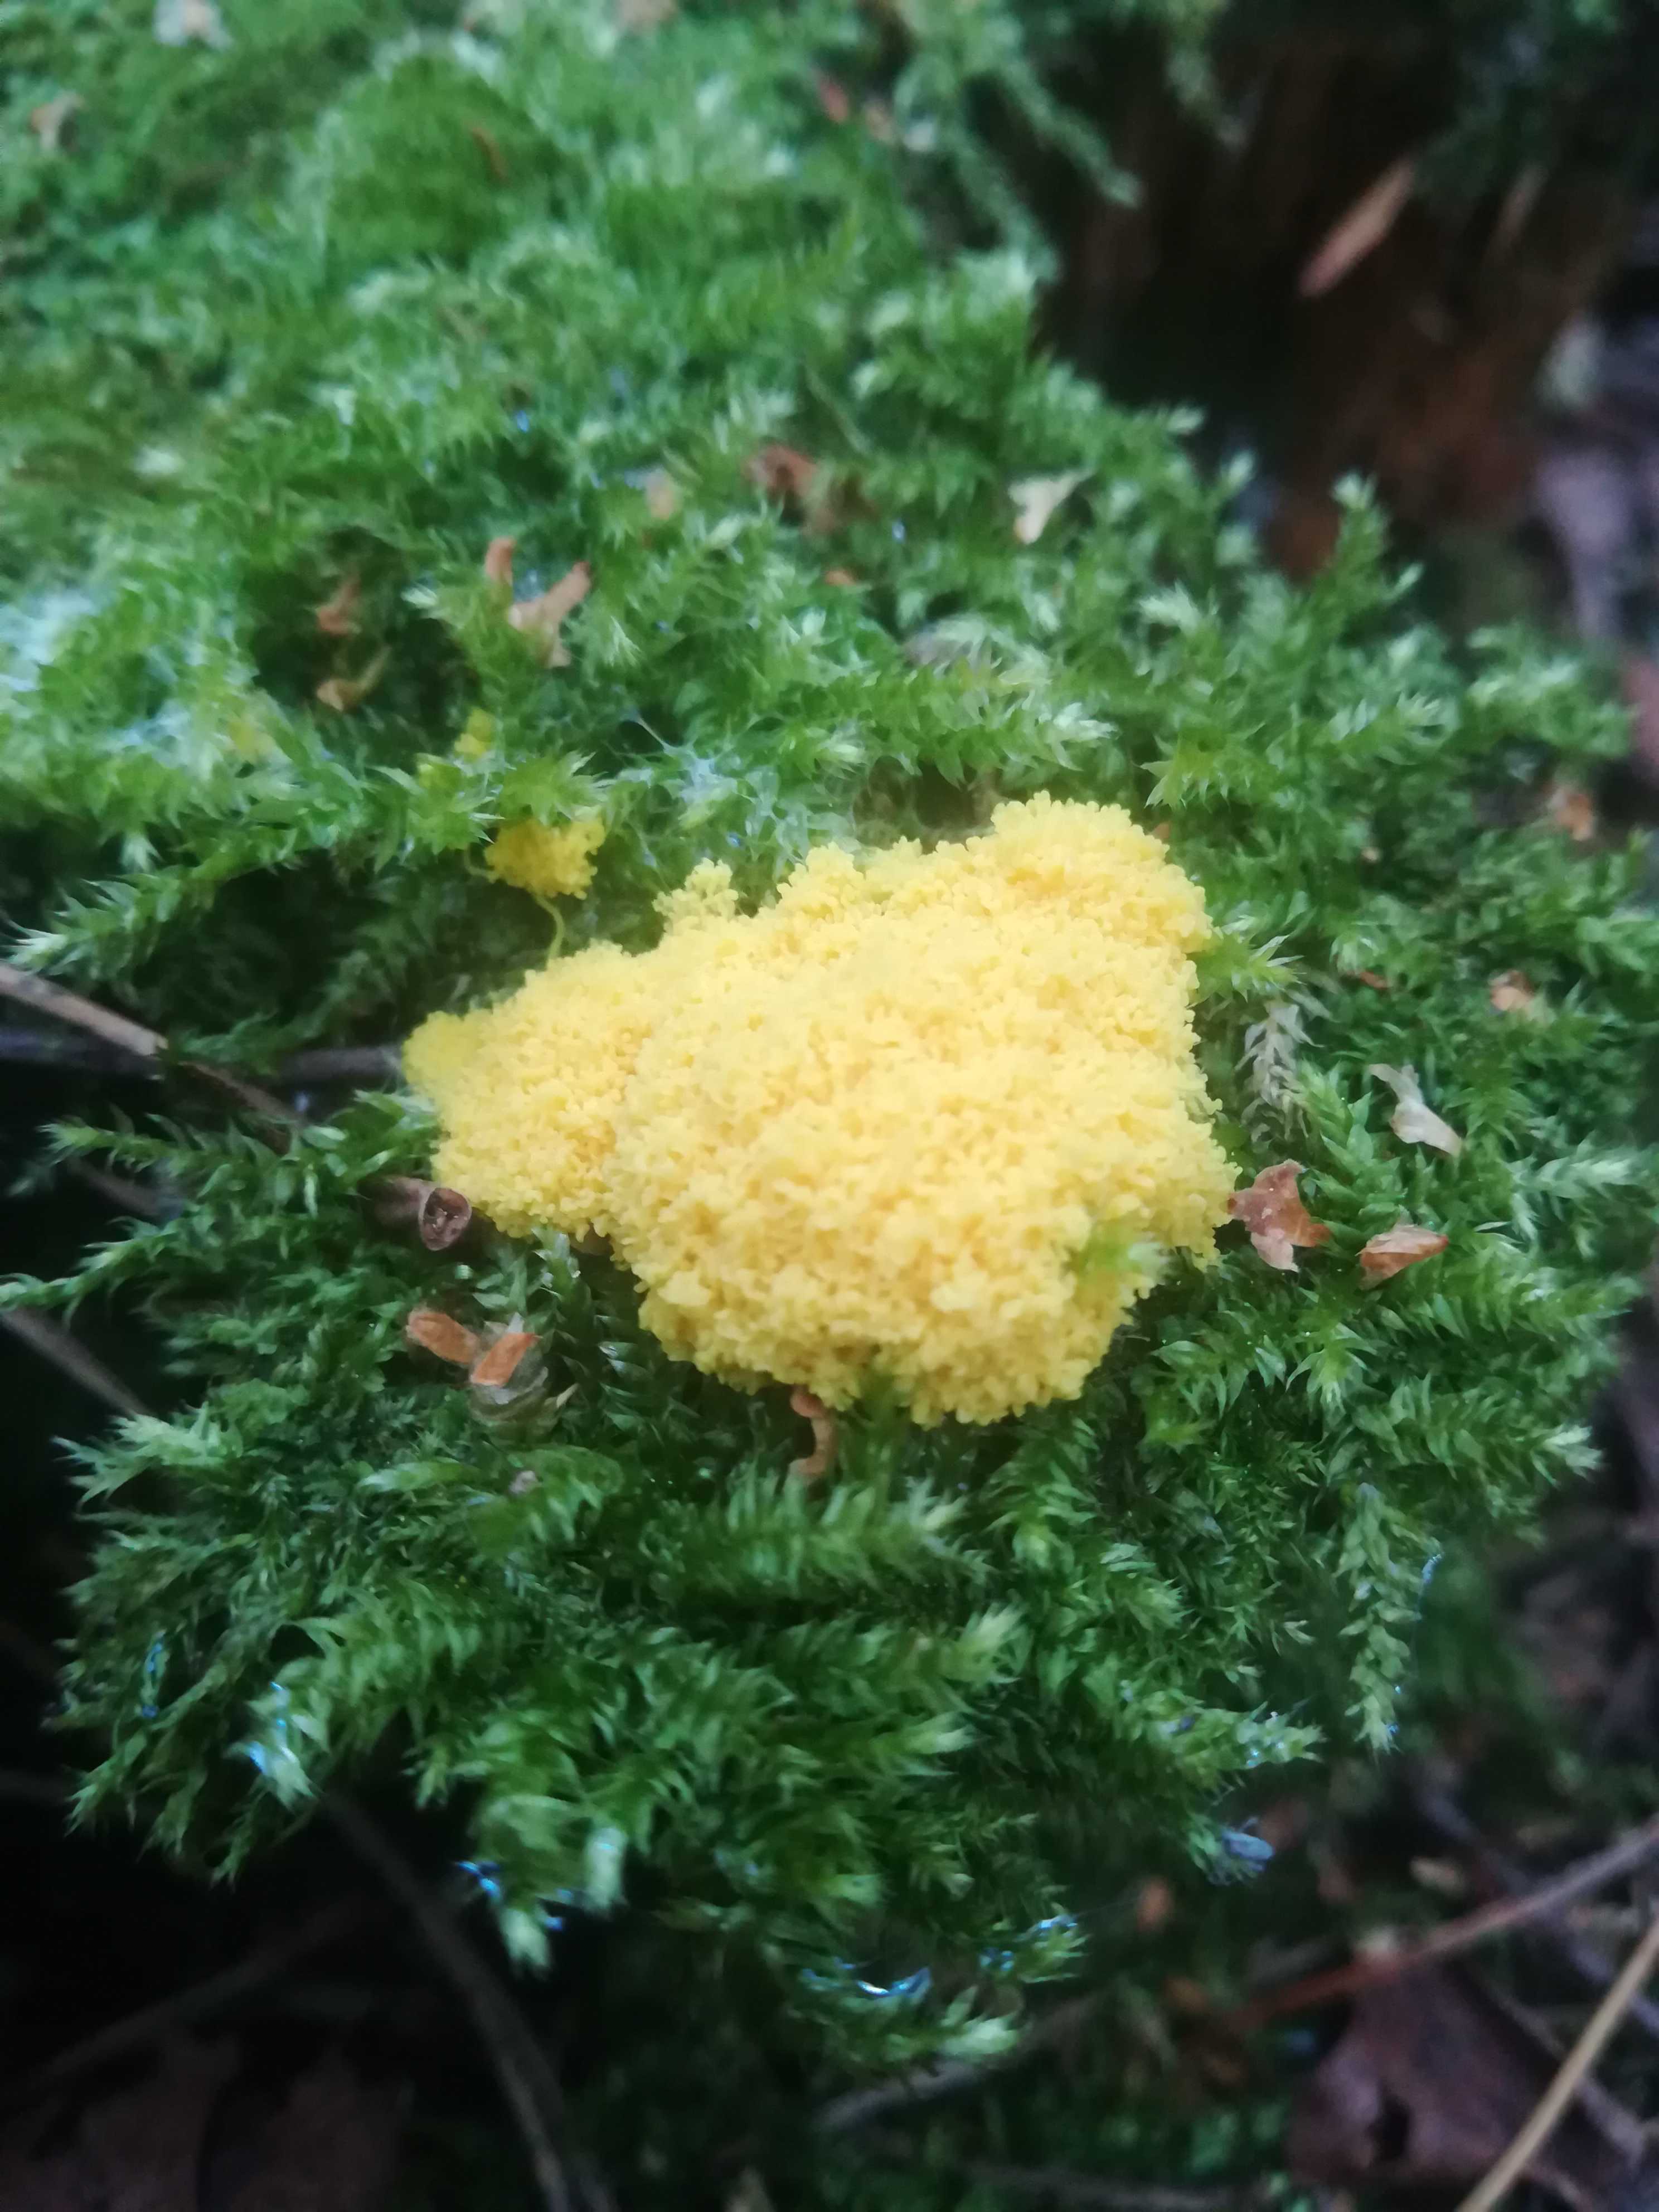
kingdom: Protozoa
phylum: Mycetozoa
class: Myxomycetes
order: Physarales
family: Physaraceae
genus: Fuligo
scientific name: Fuligo septica
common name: gul troldsmør
